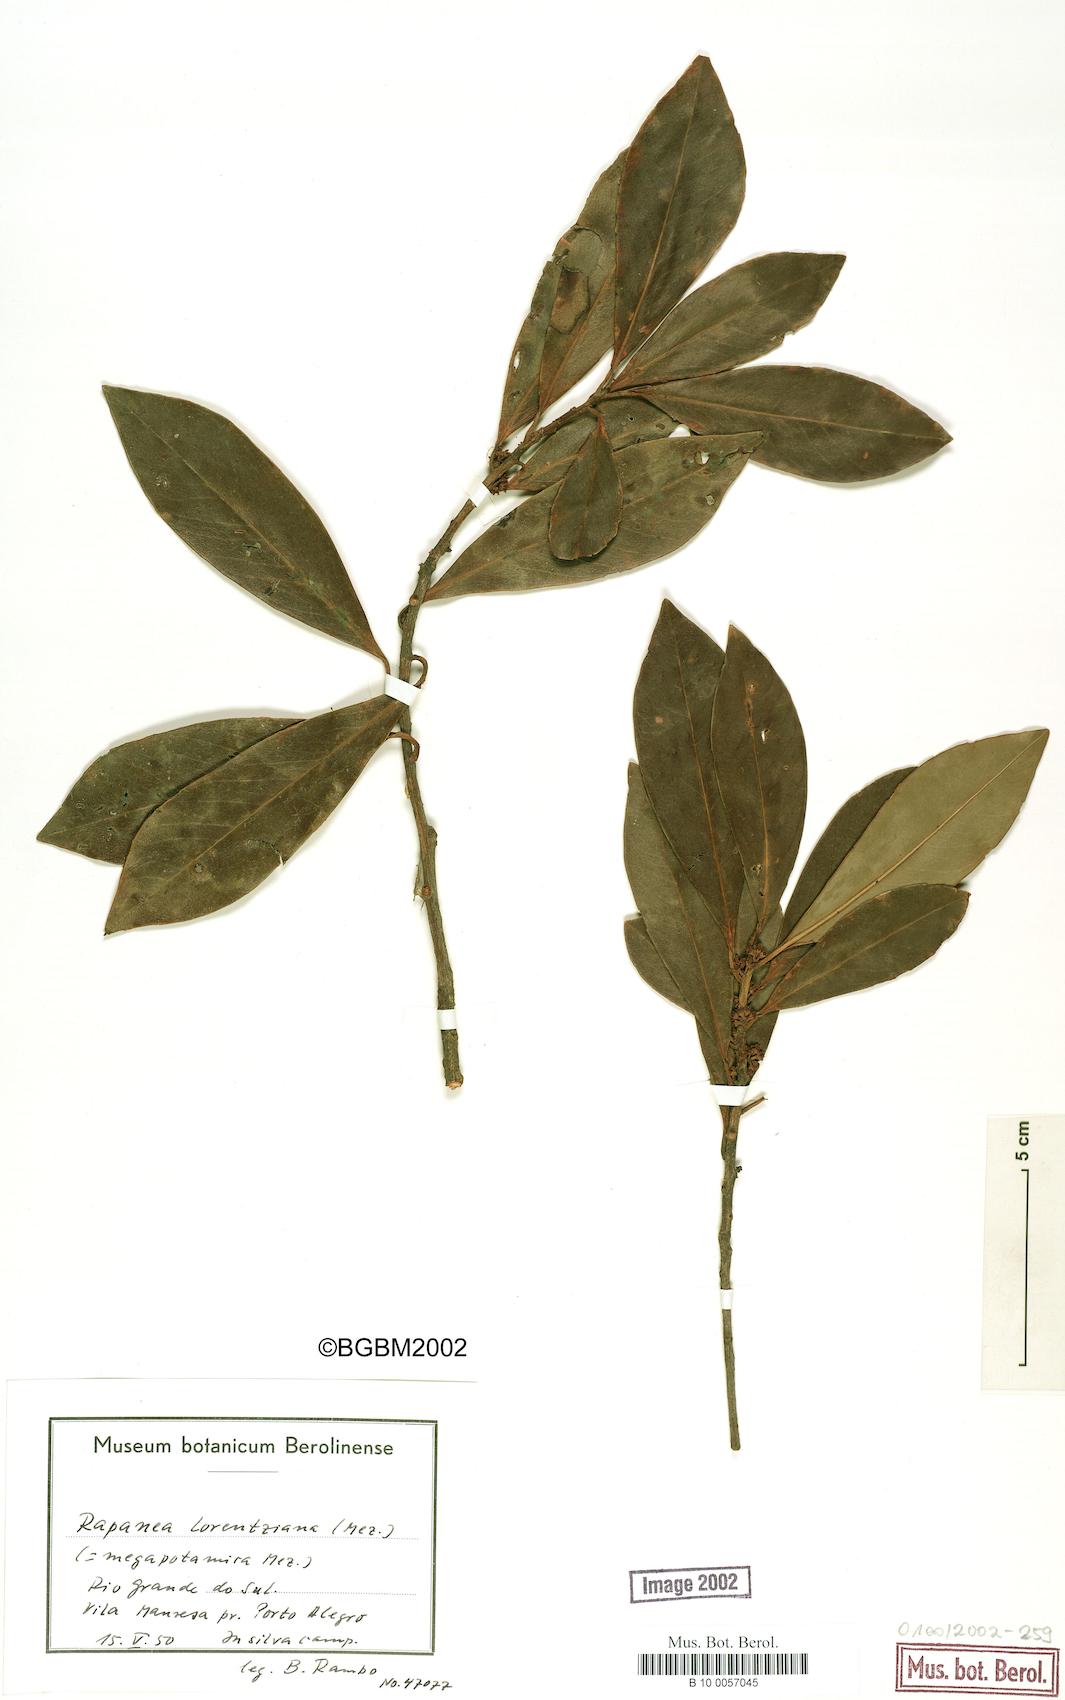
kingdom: Plantae
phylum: Tracheophyta
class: Magnoliopsida
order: Ericales
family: Primulaceae
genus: Myrsine
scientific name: Myrsine lorentziana
